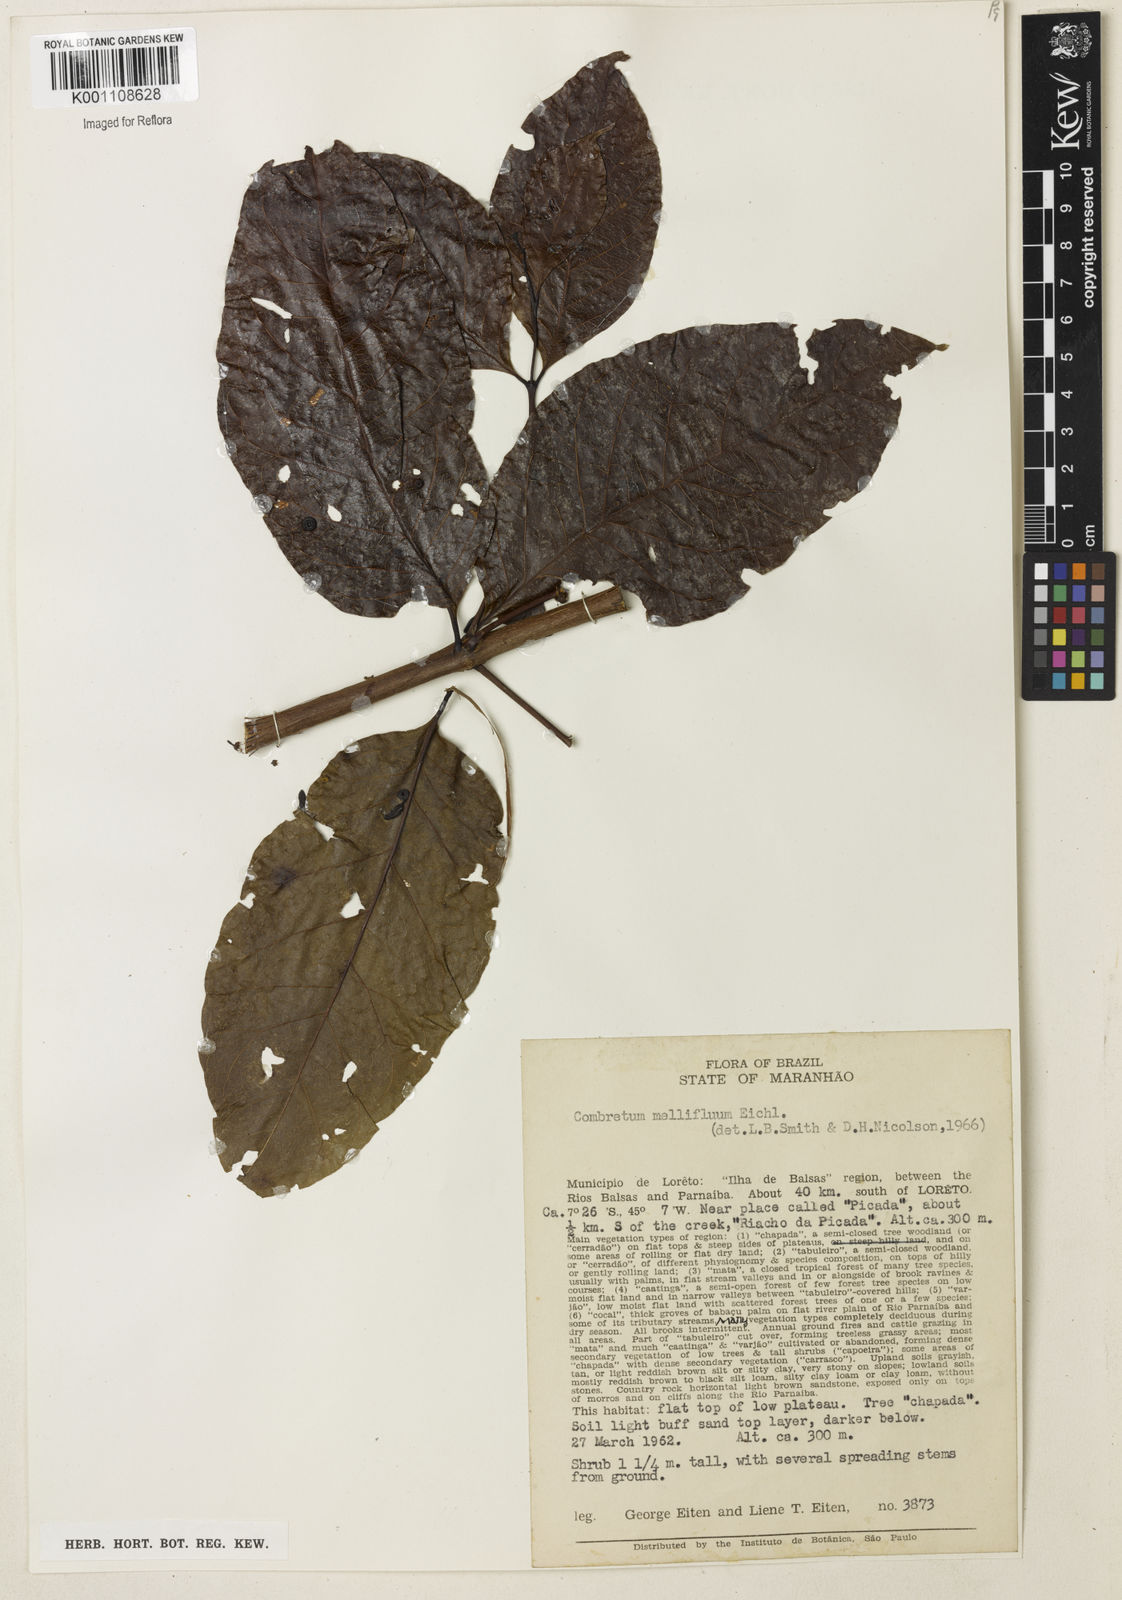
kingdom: Plantae
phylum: Tracheophyta
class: Magnoliopsida
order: Myrtales
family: Combretaceae
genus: Combretum
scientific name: Combretum mellifluum
